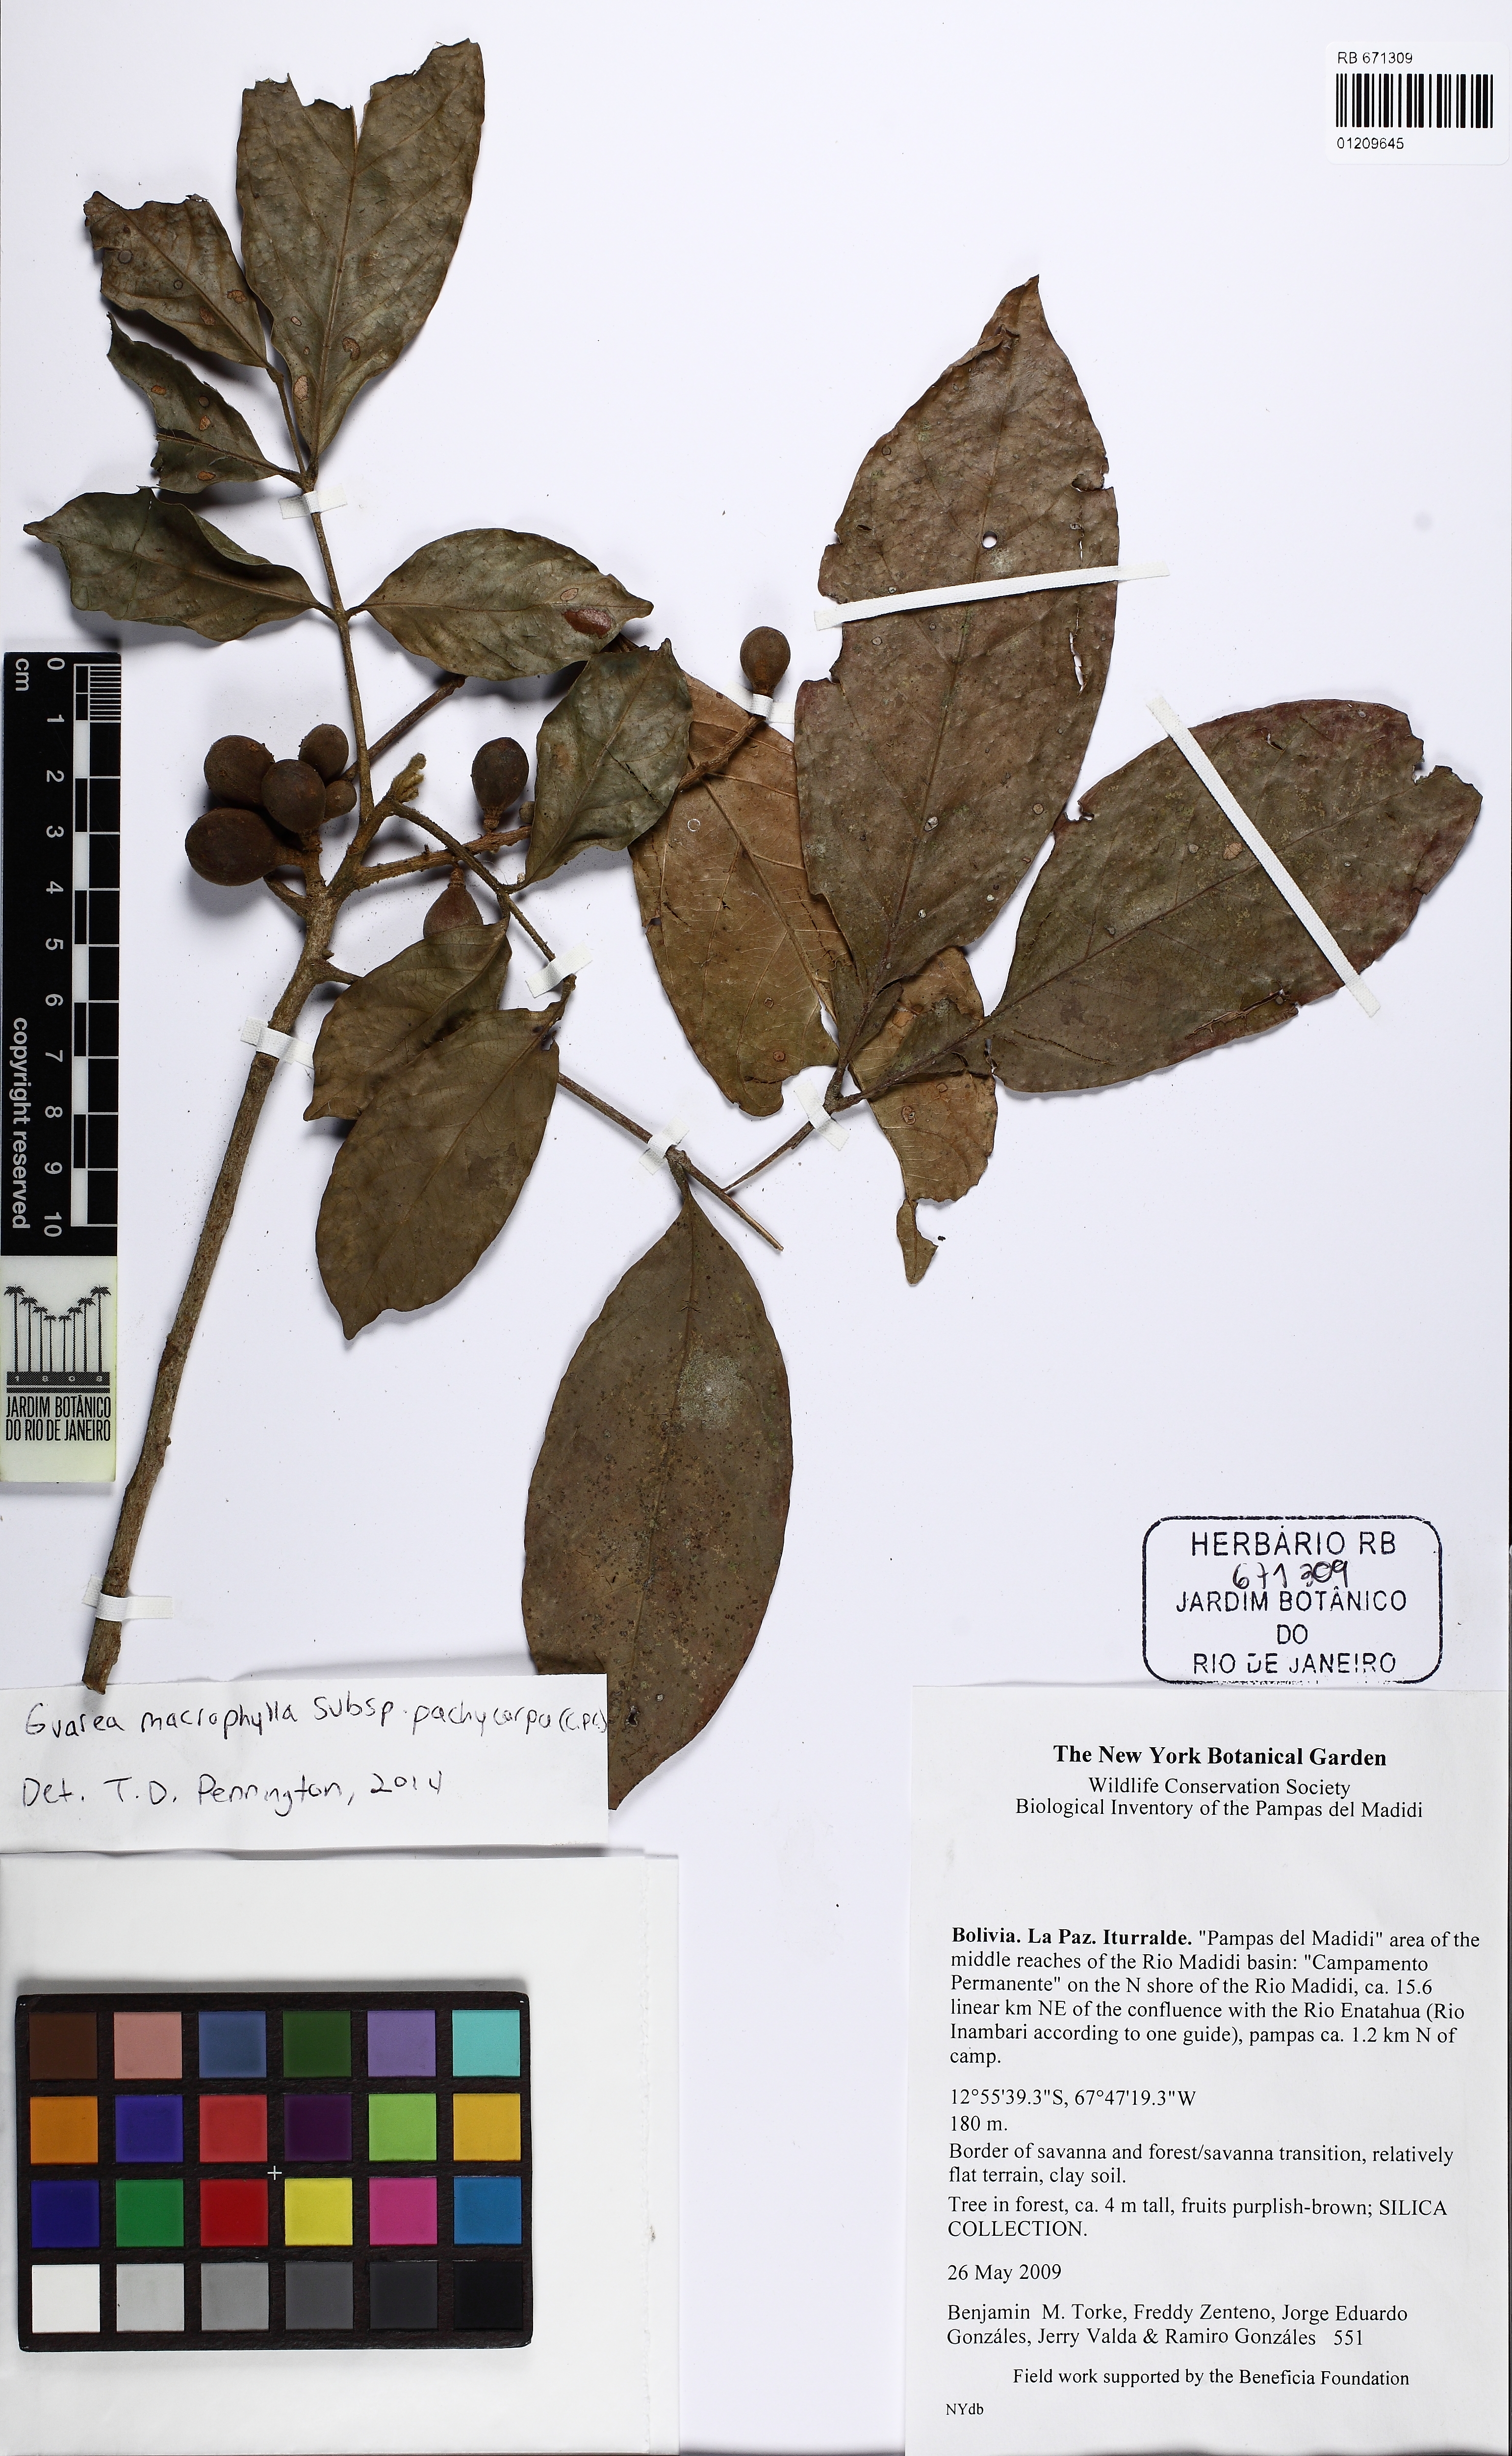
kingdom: Plantae
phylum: Tracheophyta
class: Magnoliopsida
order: Sapindales
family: Meliaceae
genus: Guarea
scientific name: Guarea macrophylla
